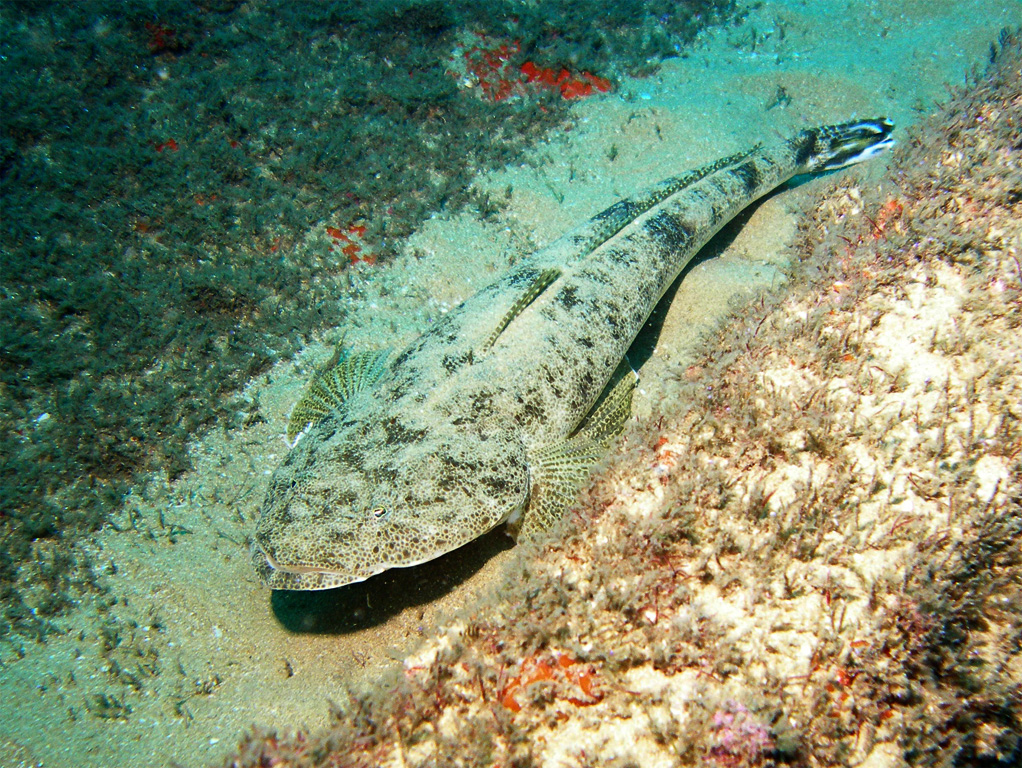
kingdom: Animalia
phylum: Chordata
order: Scorpaeniformes
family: Platycephalidae
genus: Platycephalus
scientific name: Platycephalus indicus
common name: Bartail flathead
